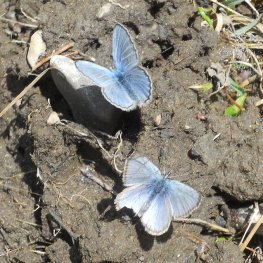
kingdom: Animalia
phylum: Arthropoda
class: Insecta
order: Lepidoptera
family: Lycaenidae
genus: Glaucopsyche
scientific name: Glaucopsyche lygdamus
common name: Silvery Blue
